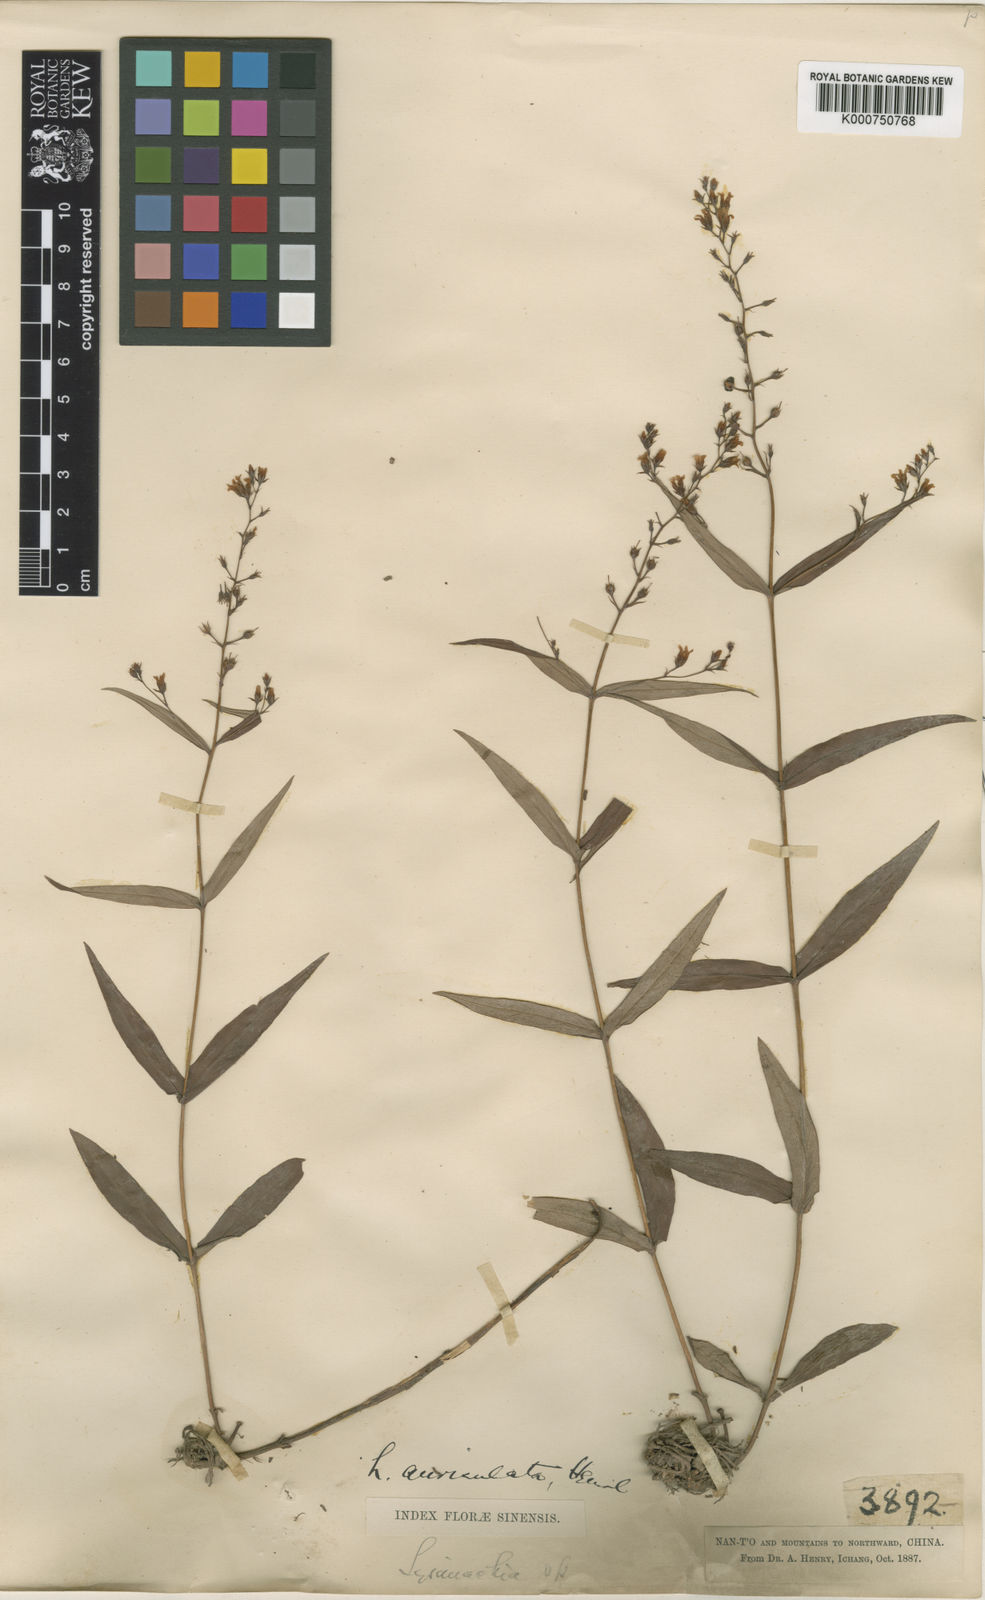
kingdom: Plantae
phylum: Tracheophyta
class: Magnoliopsida
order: Ericales
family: Primulaceae
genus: Lysimachia
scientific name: Lysimachia auriculata
